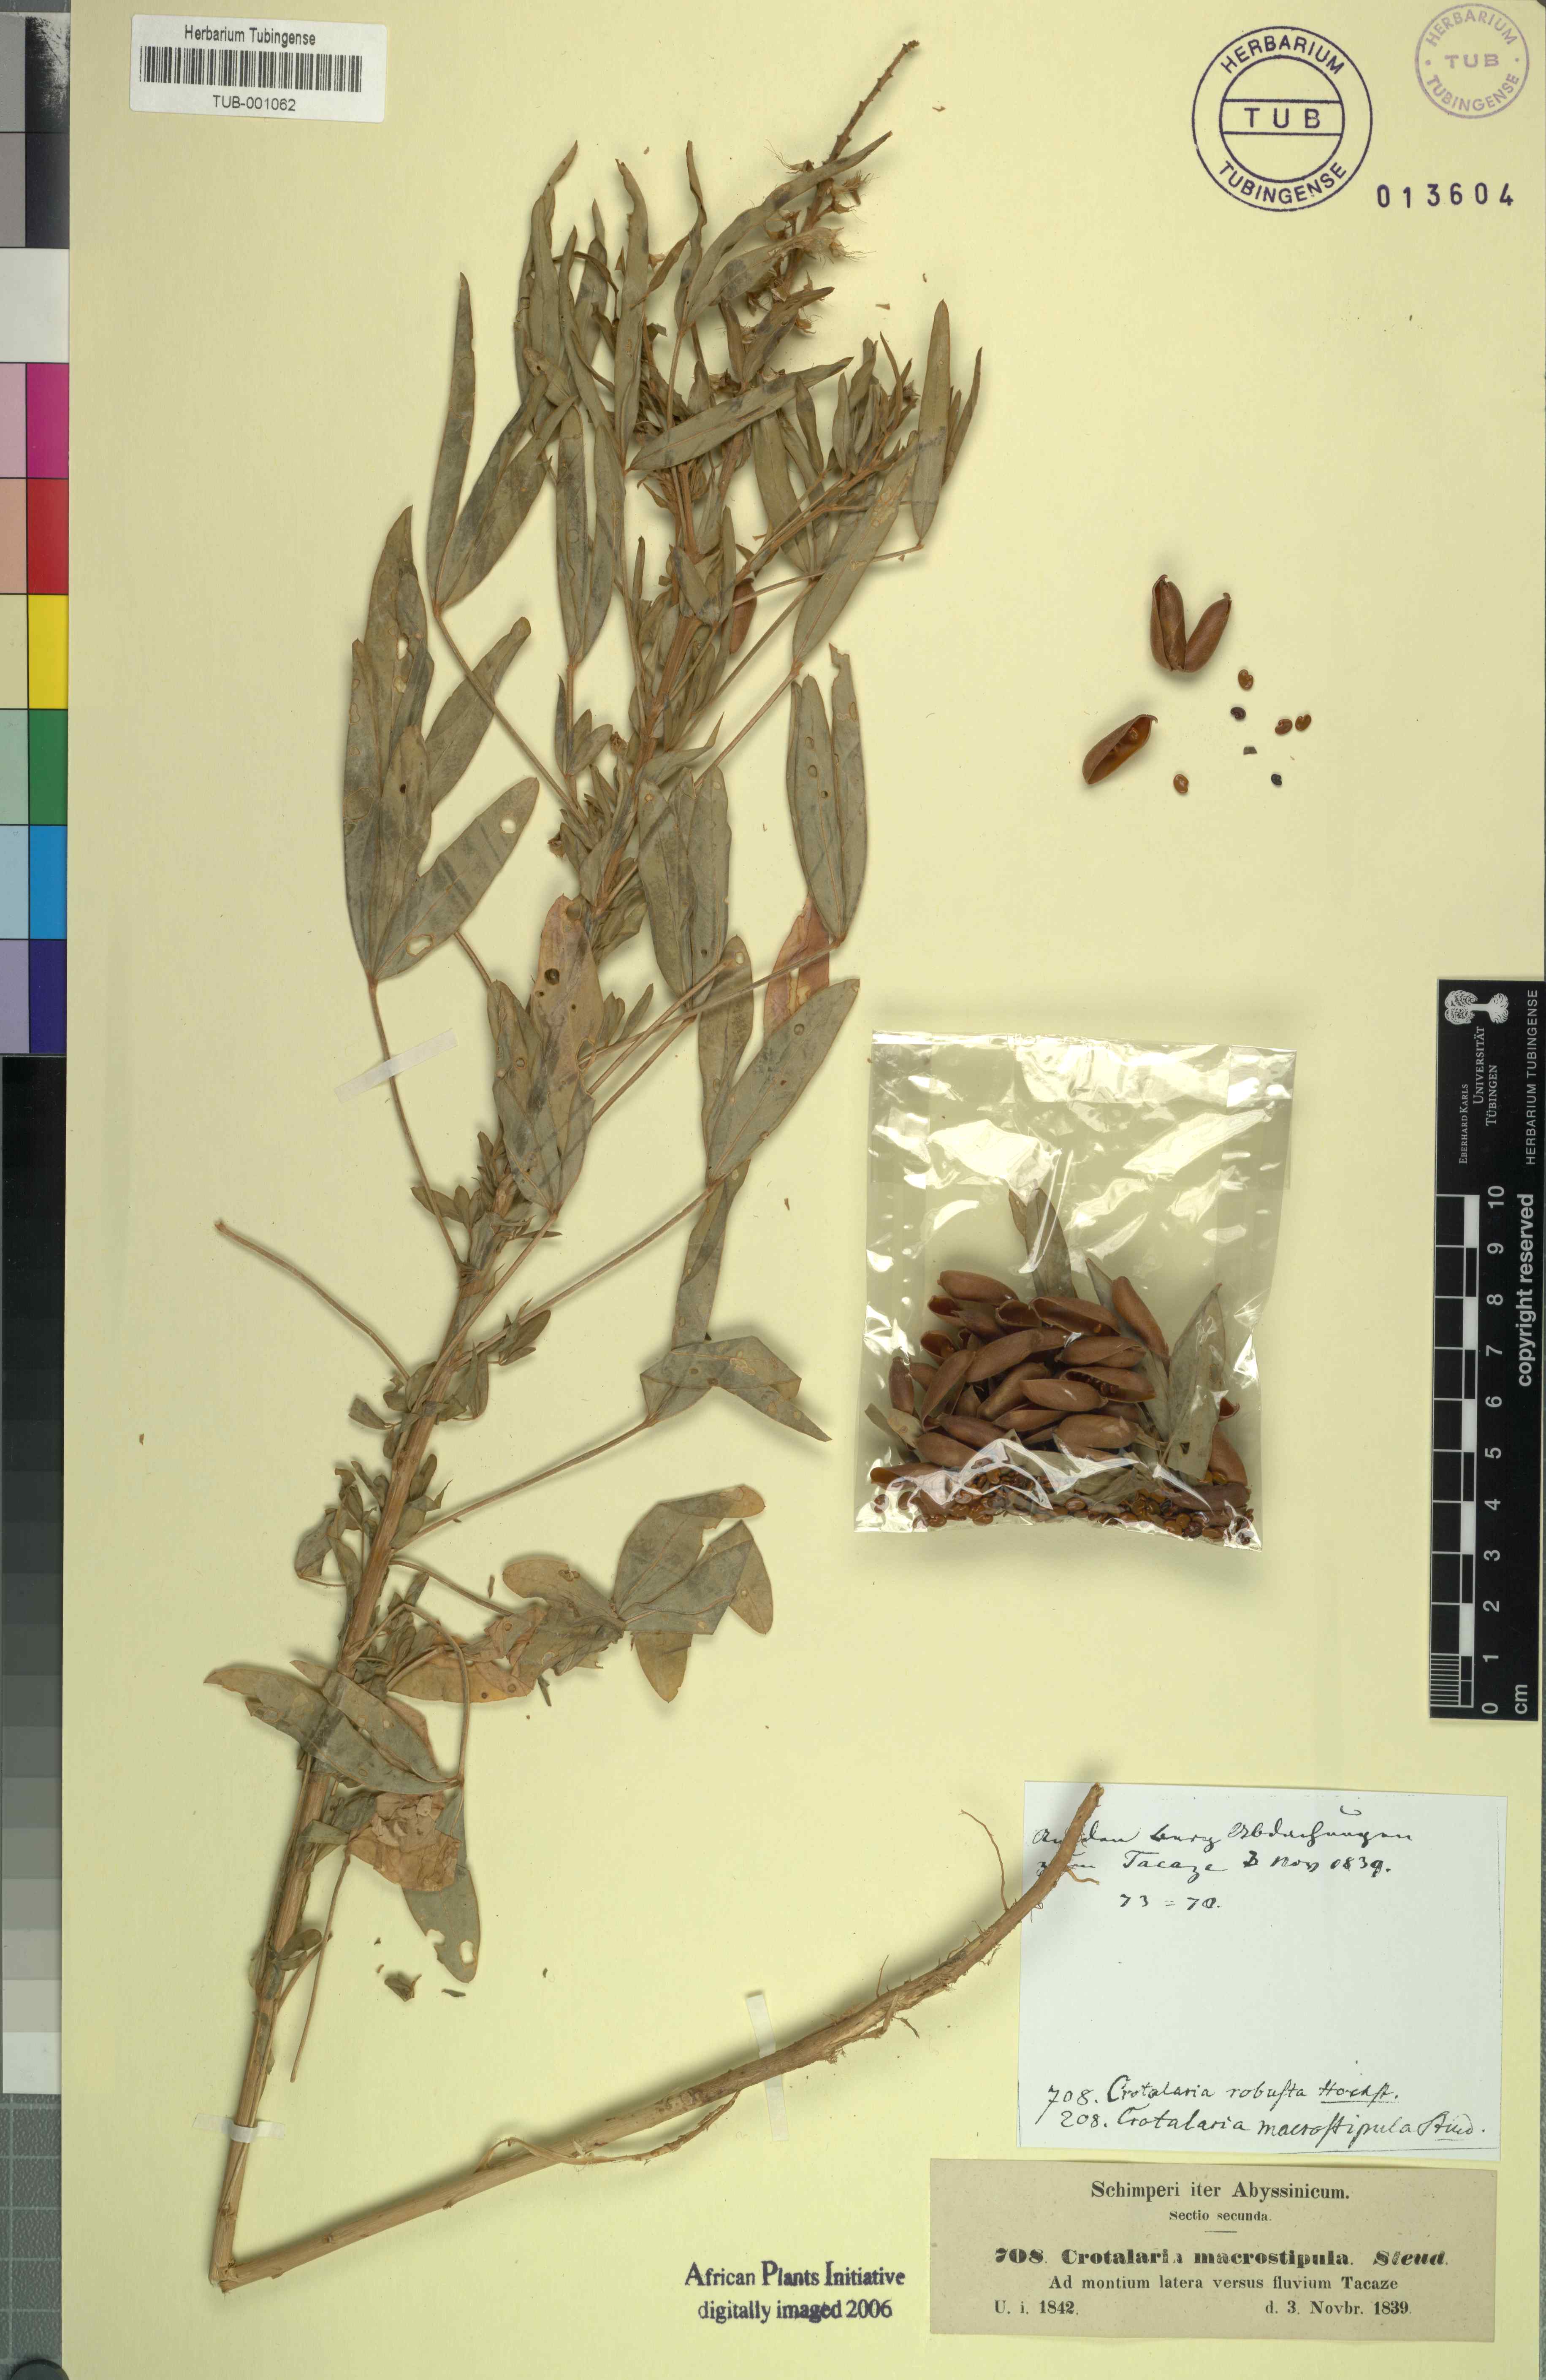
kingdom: Plantae
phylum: Tracheophyta
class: Magnoliopsida
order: Fabales
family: Fabaceae
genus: Crotalaria
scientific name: Crotalaria goreensis
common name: Gambia-pea
